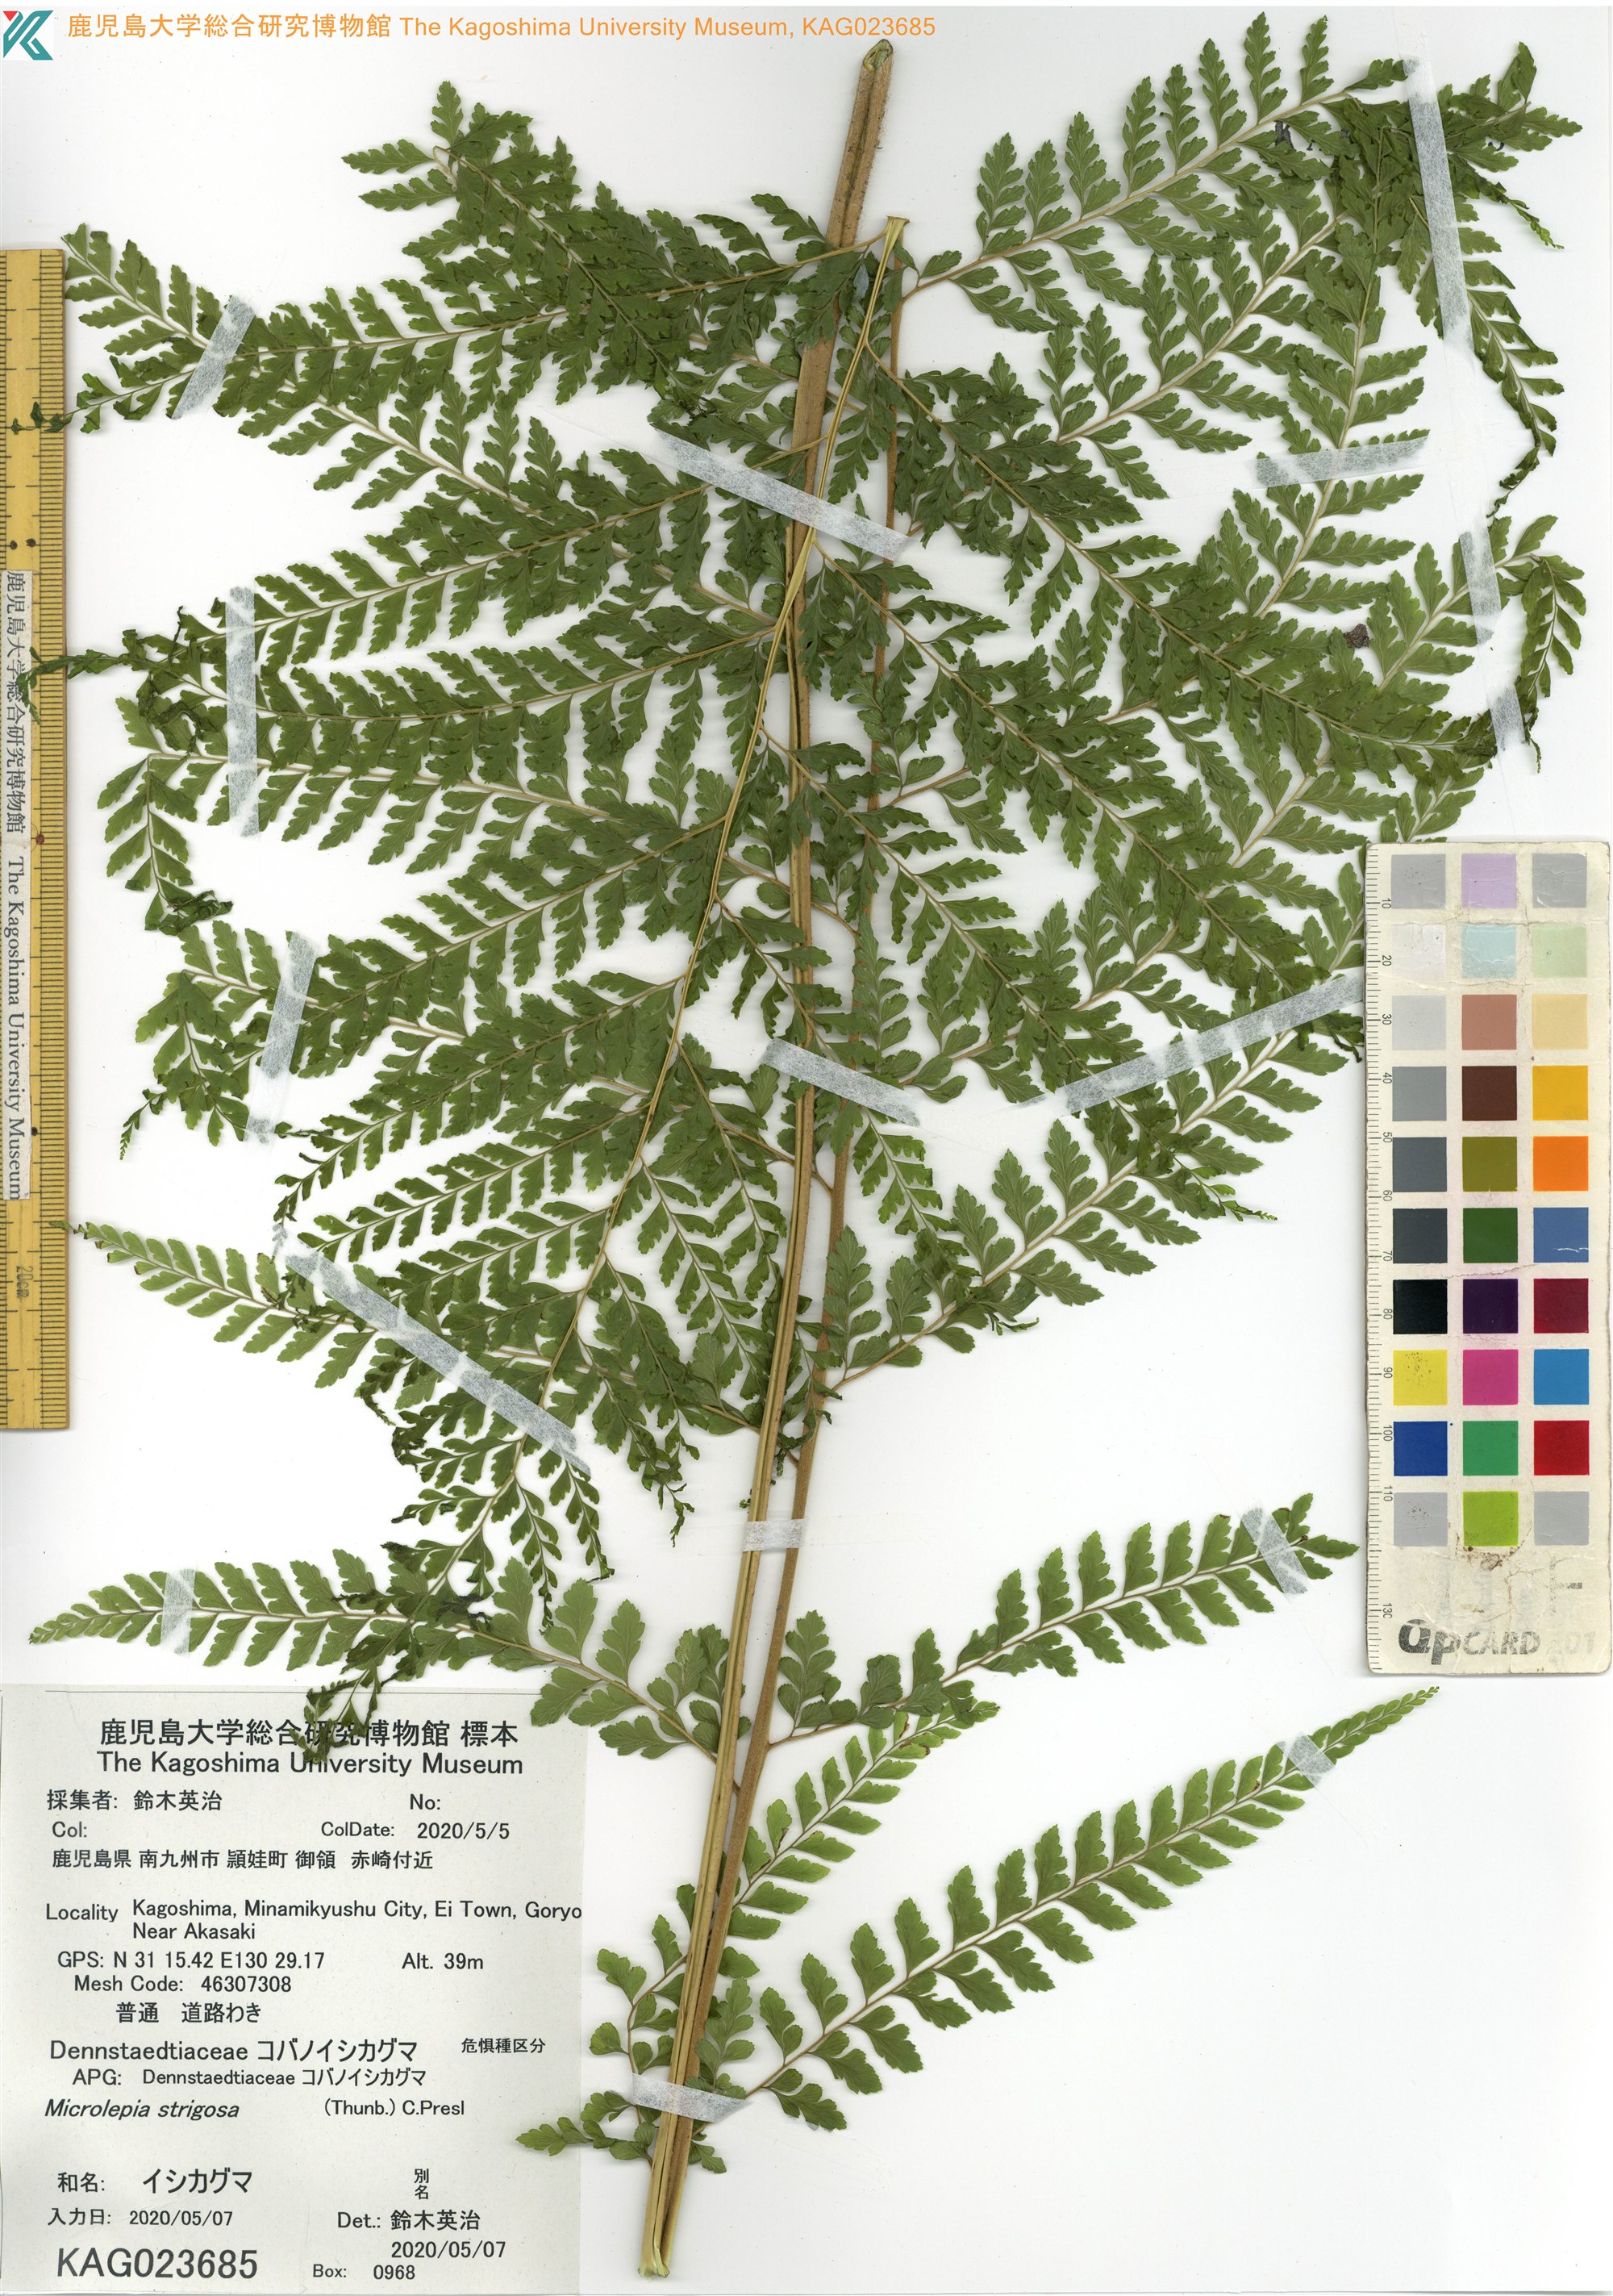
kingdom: Plantae
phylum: Tracheophyta
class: Polypodiopsida
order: Polypodiales
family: Dennstaedtiaceae
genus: Microlepia
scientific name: Microlepia strigosa
